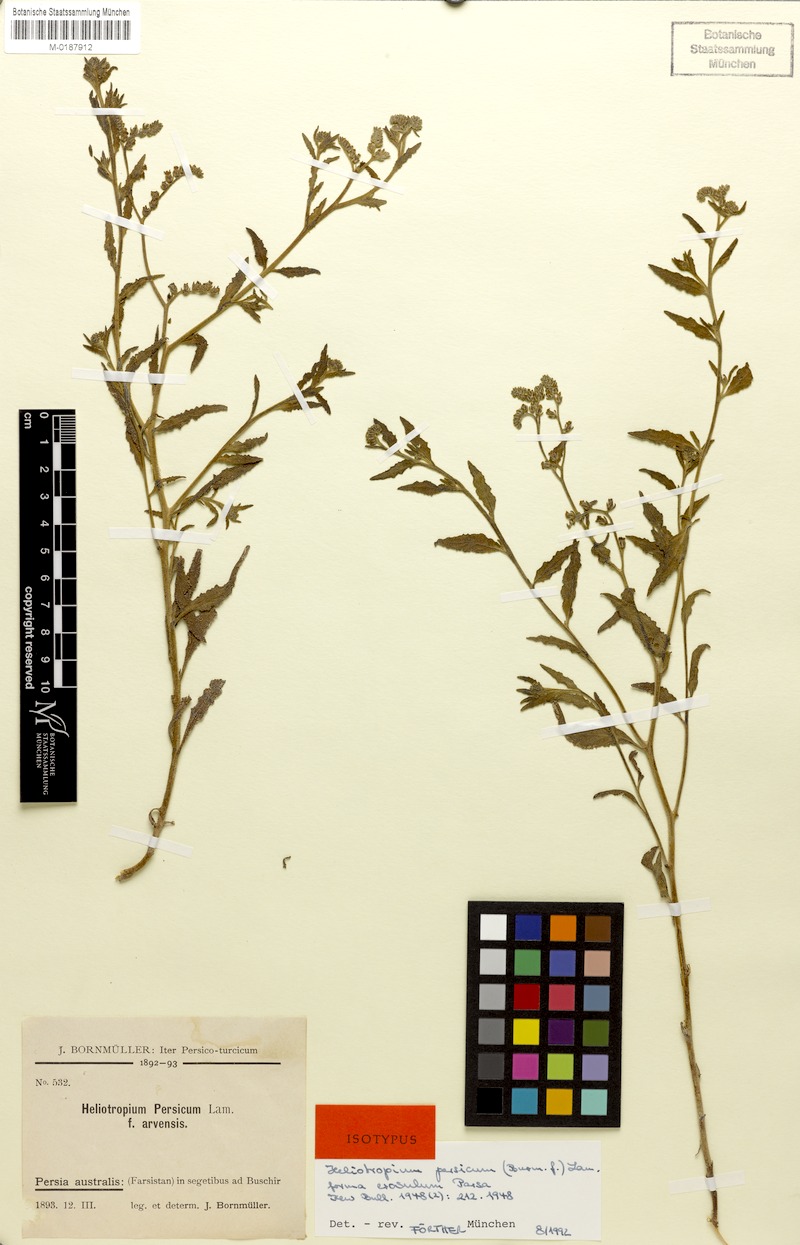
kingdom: Plantae
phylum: Tracheophyta
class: Magnoliopsida
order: Boraginales
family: Heliotropiaceae
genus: Heliotropium
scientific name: Heliotropium bacciferum
